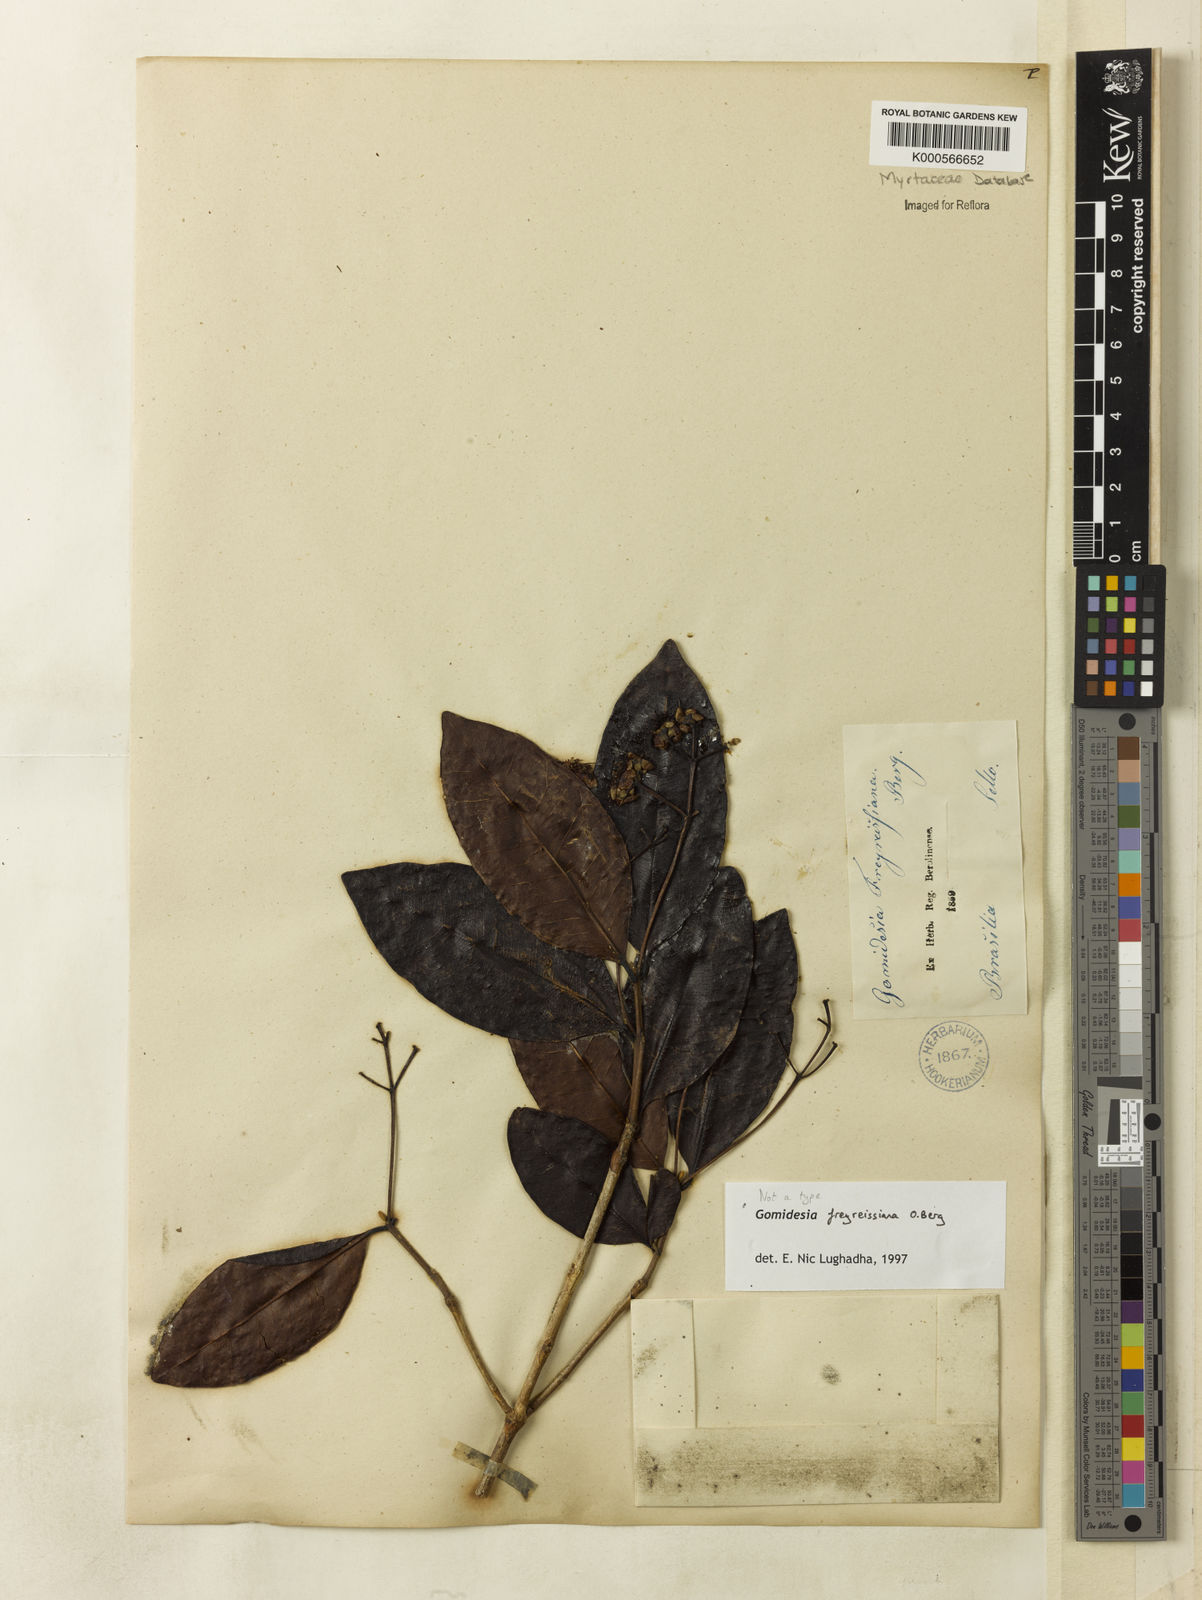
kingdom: Plantae
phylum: Tracheophyta
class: Magnoliopsida
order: Myrtales
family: Myrtaceae
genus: Myrcia
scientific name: Myrcia freyreissiana
